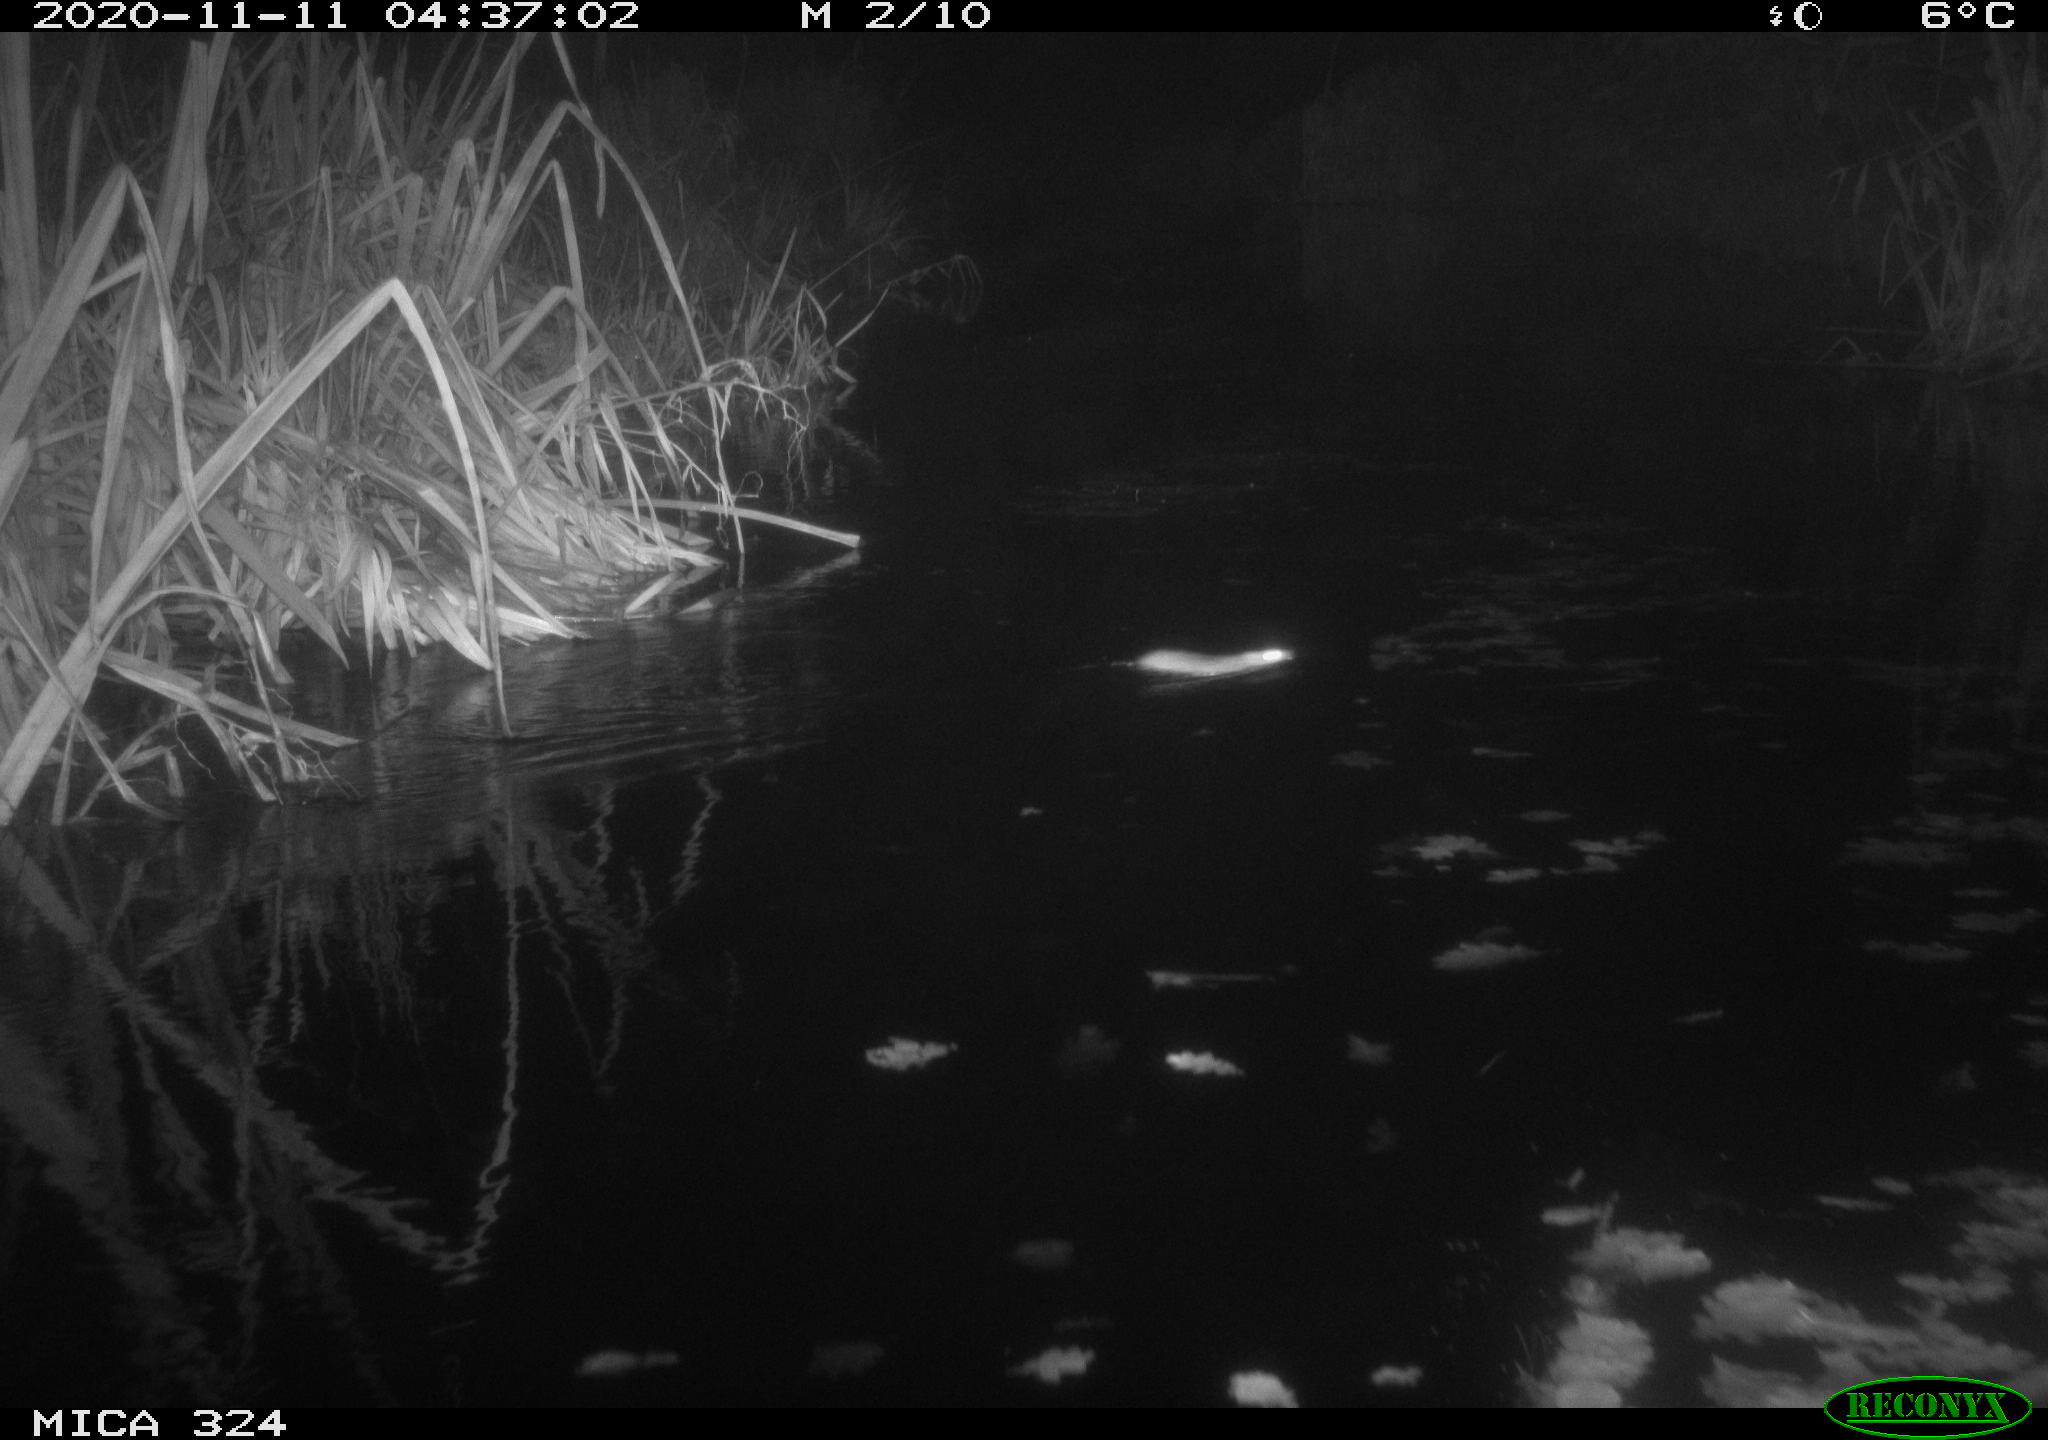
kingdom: Animalia
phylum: Chordata
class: Mammalia
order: Rodentia
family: Muridae
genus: Rattus
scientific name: Rattus norvegicus
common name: Brown rat
